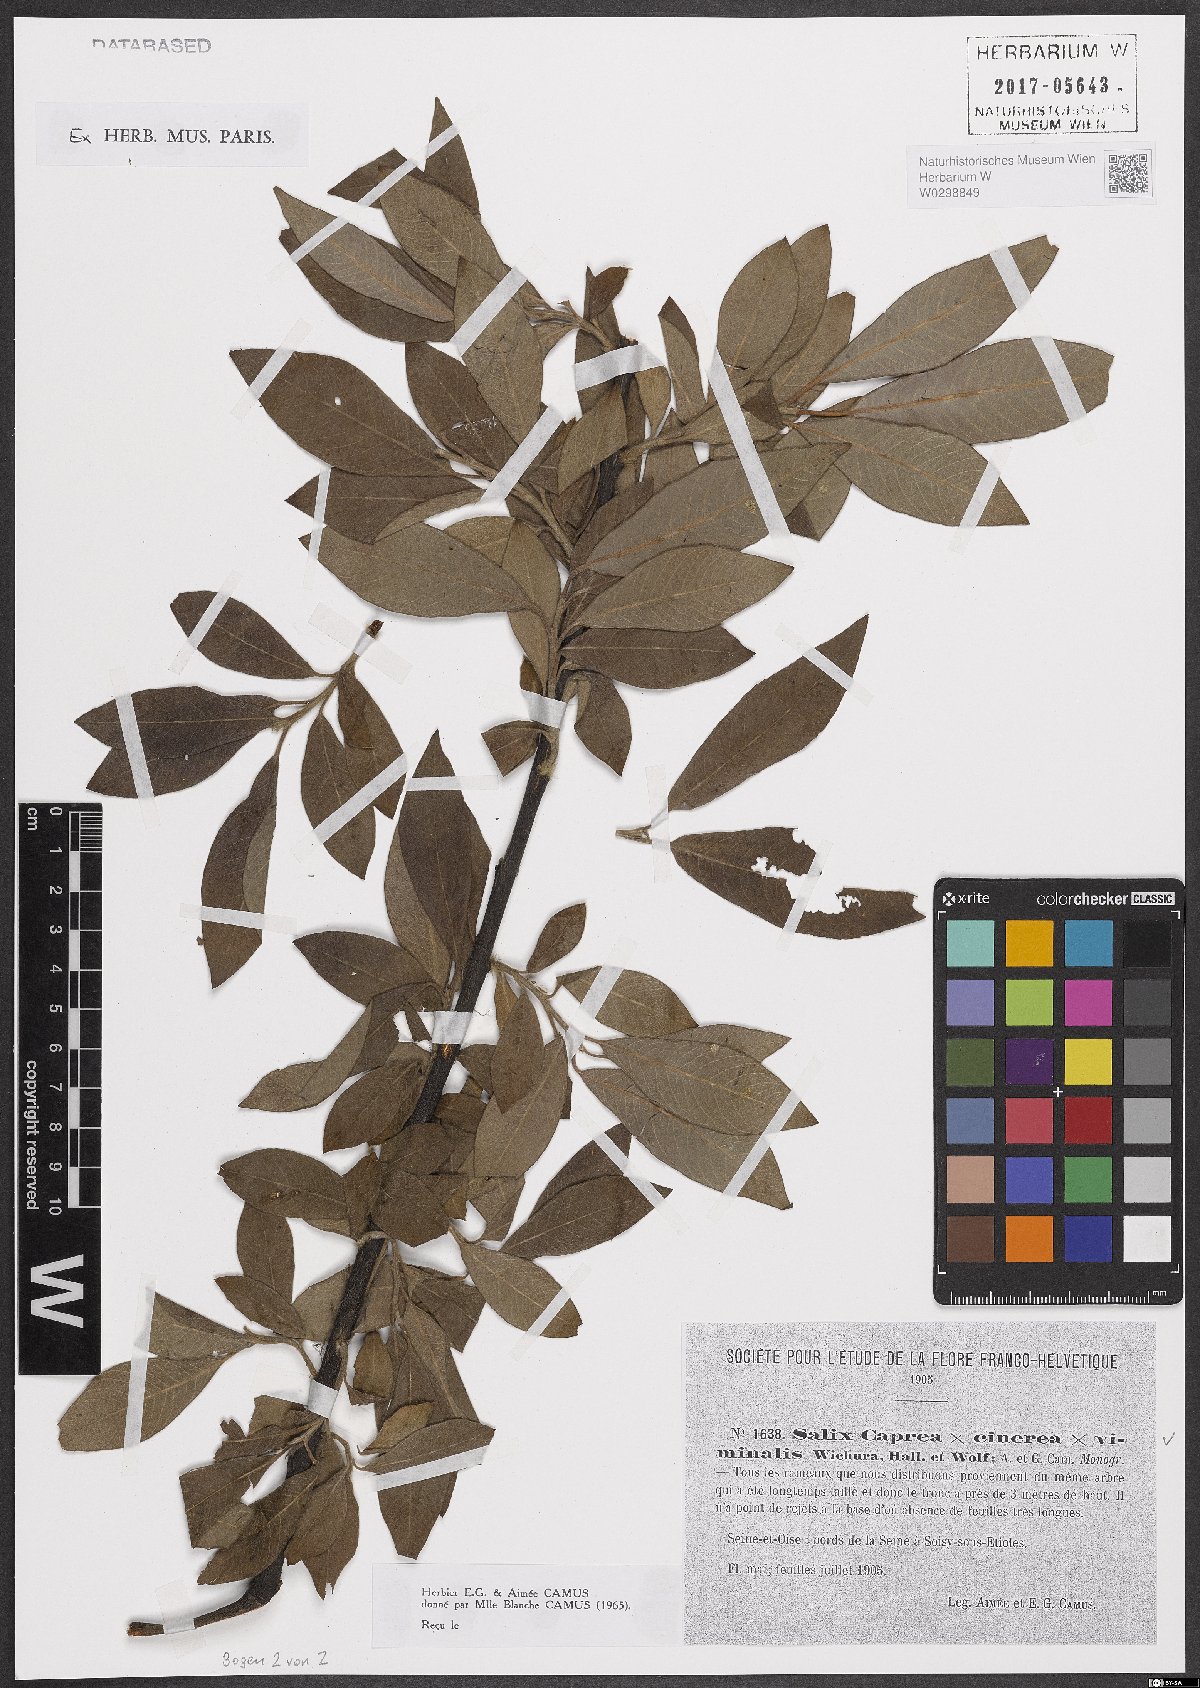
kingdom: Plantae
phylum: Tracheophyta
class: Magnoliopsida
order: Malpighiales
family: Salicaceae
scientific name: Salicaceae
